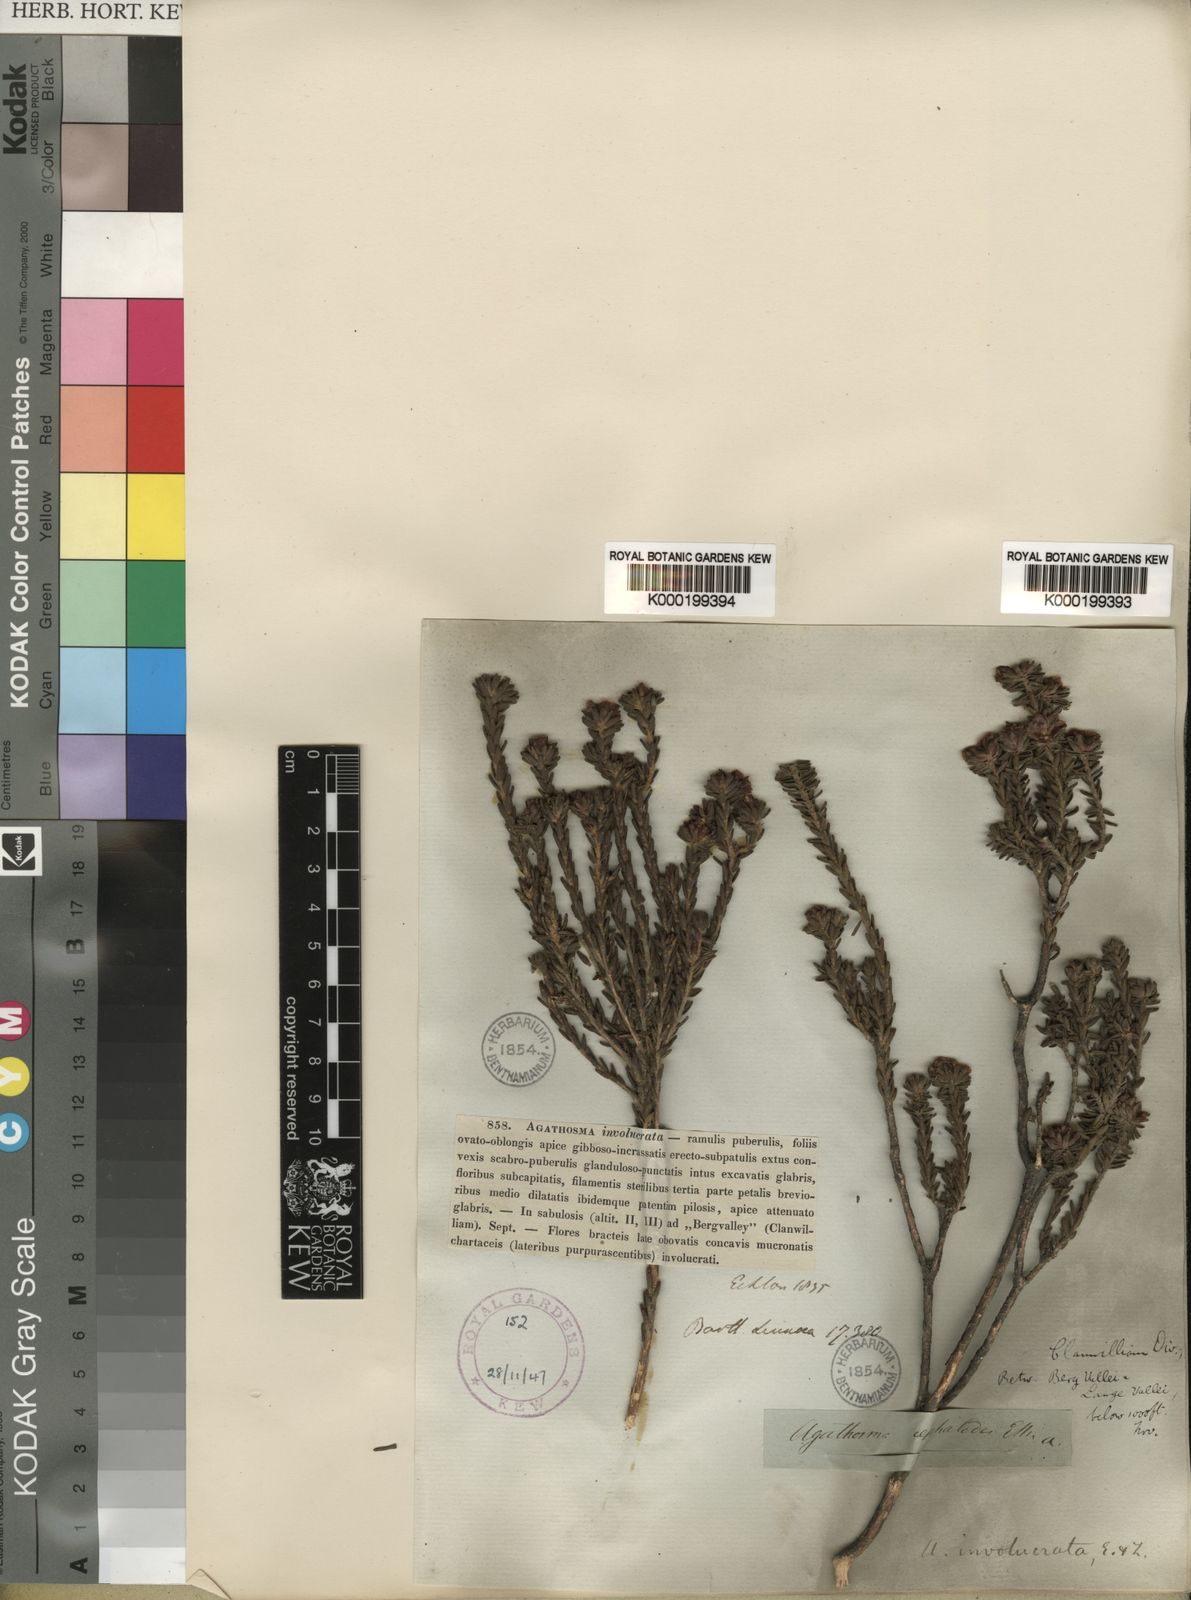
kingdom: Plantae
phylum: Tracheophyta
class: Magnoliopsida
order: Sapindales
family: Rutaceae
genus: Agathosma
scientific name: Agathosma involucrata
